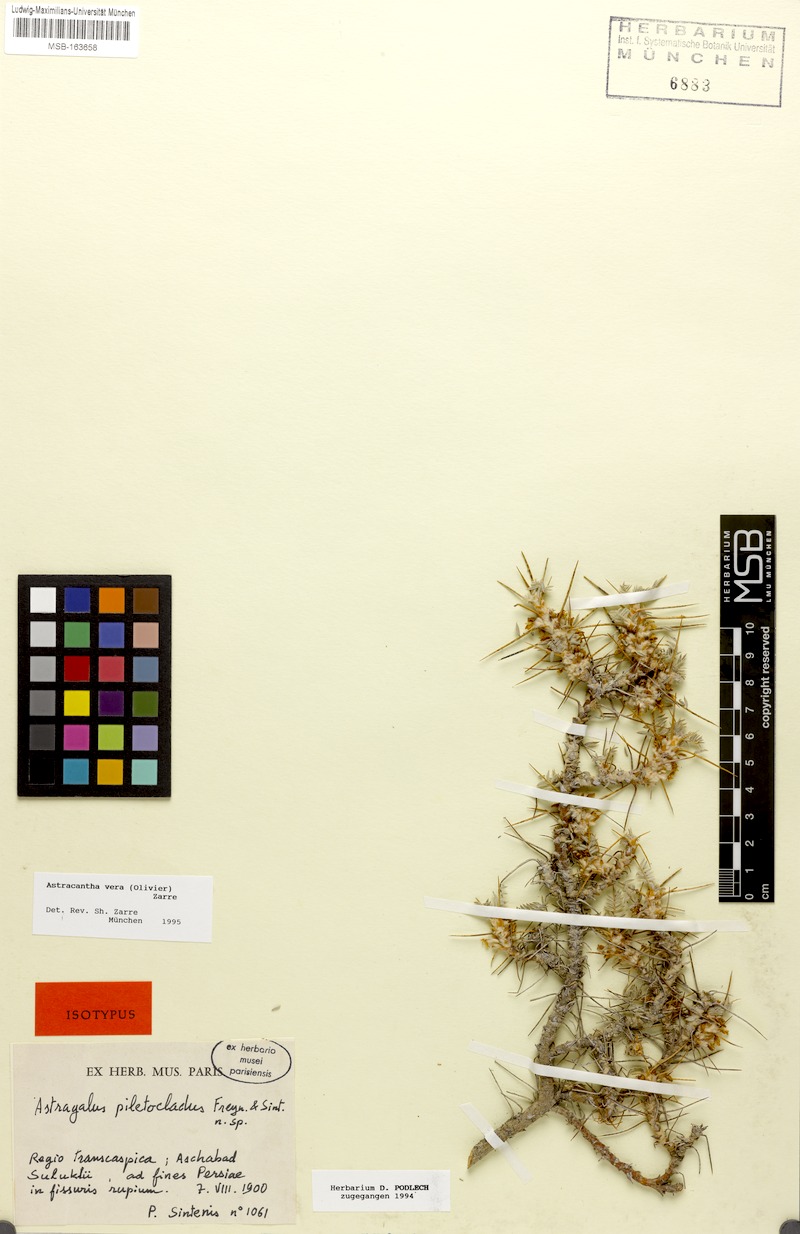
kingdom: Plantae
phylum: Tracheophyta
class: Magnoliopsida
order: Fabales
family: Fabaceae
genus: Astragalus
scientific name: Astragalus verus
